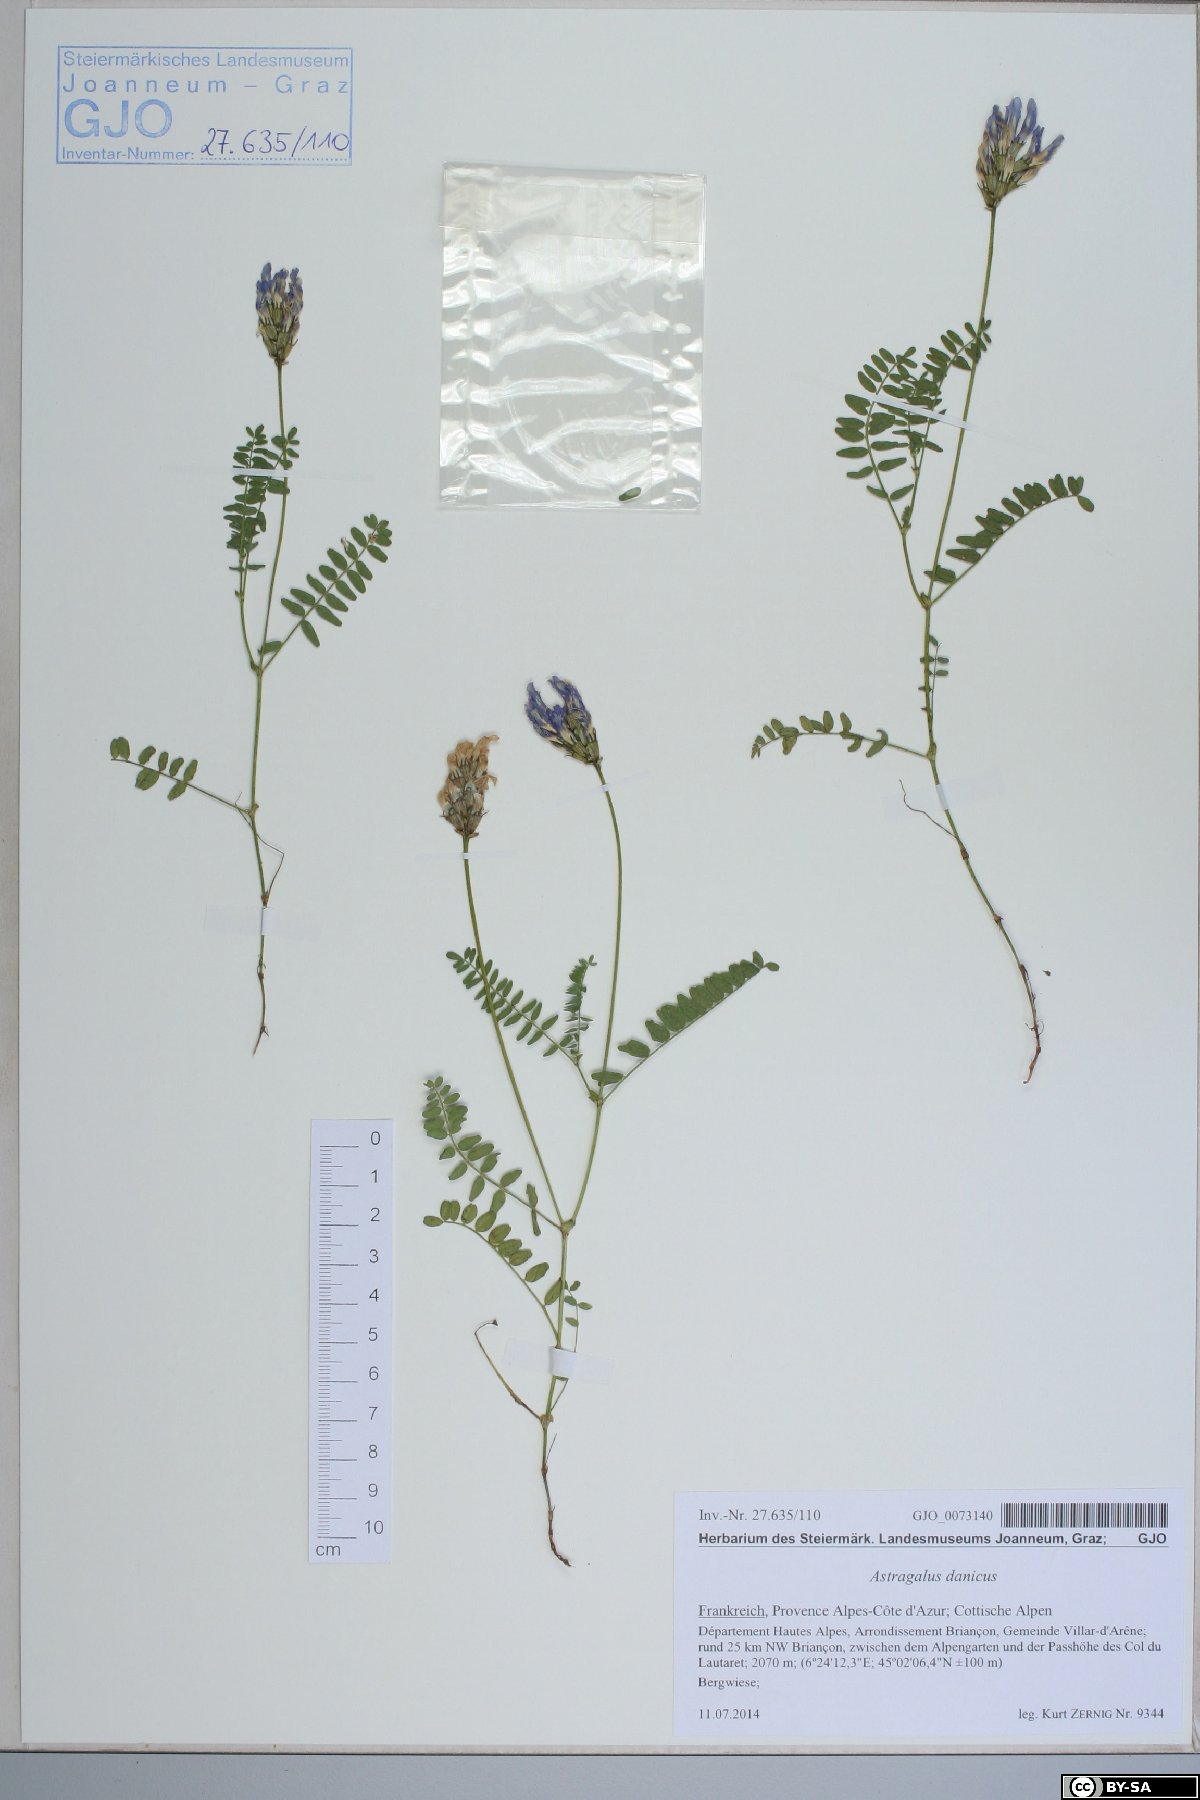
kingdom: Plantae
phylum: Tracheophyta
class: Magnoliopsida
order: Fabales
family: Fabaceae
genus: Astragalus
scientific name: Astragalus danicus
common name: Purple milk-vetch
